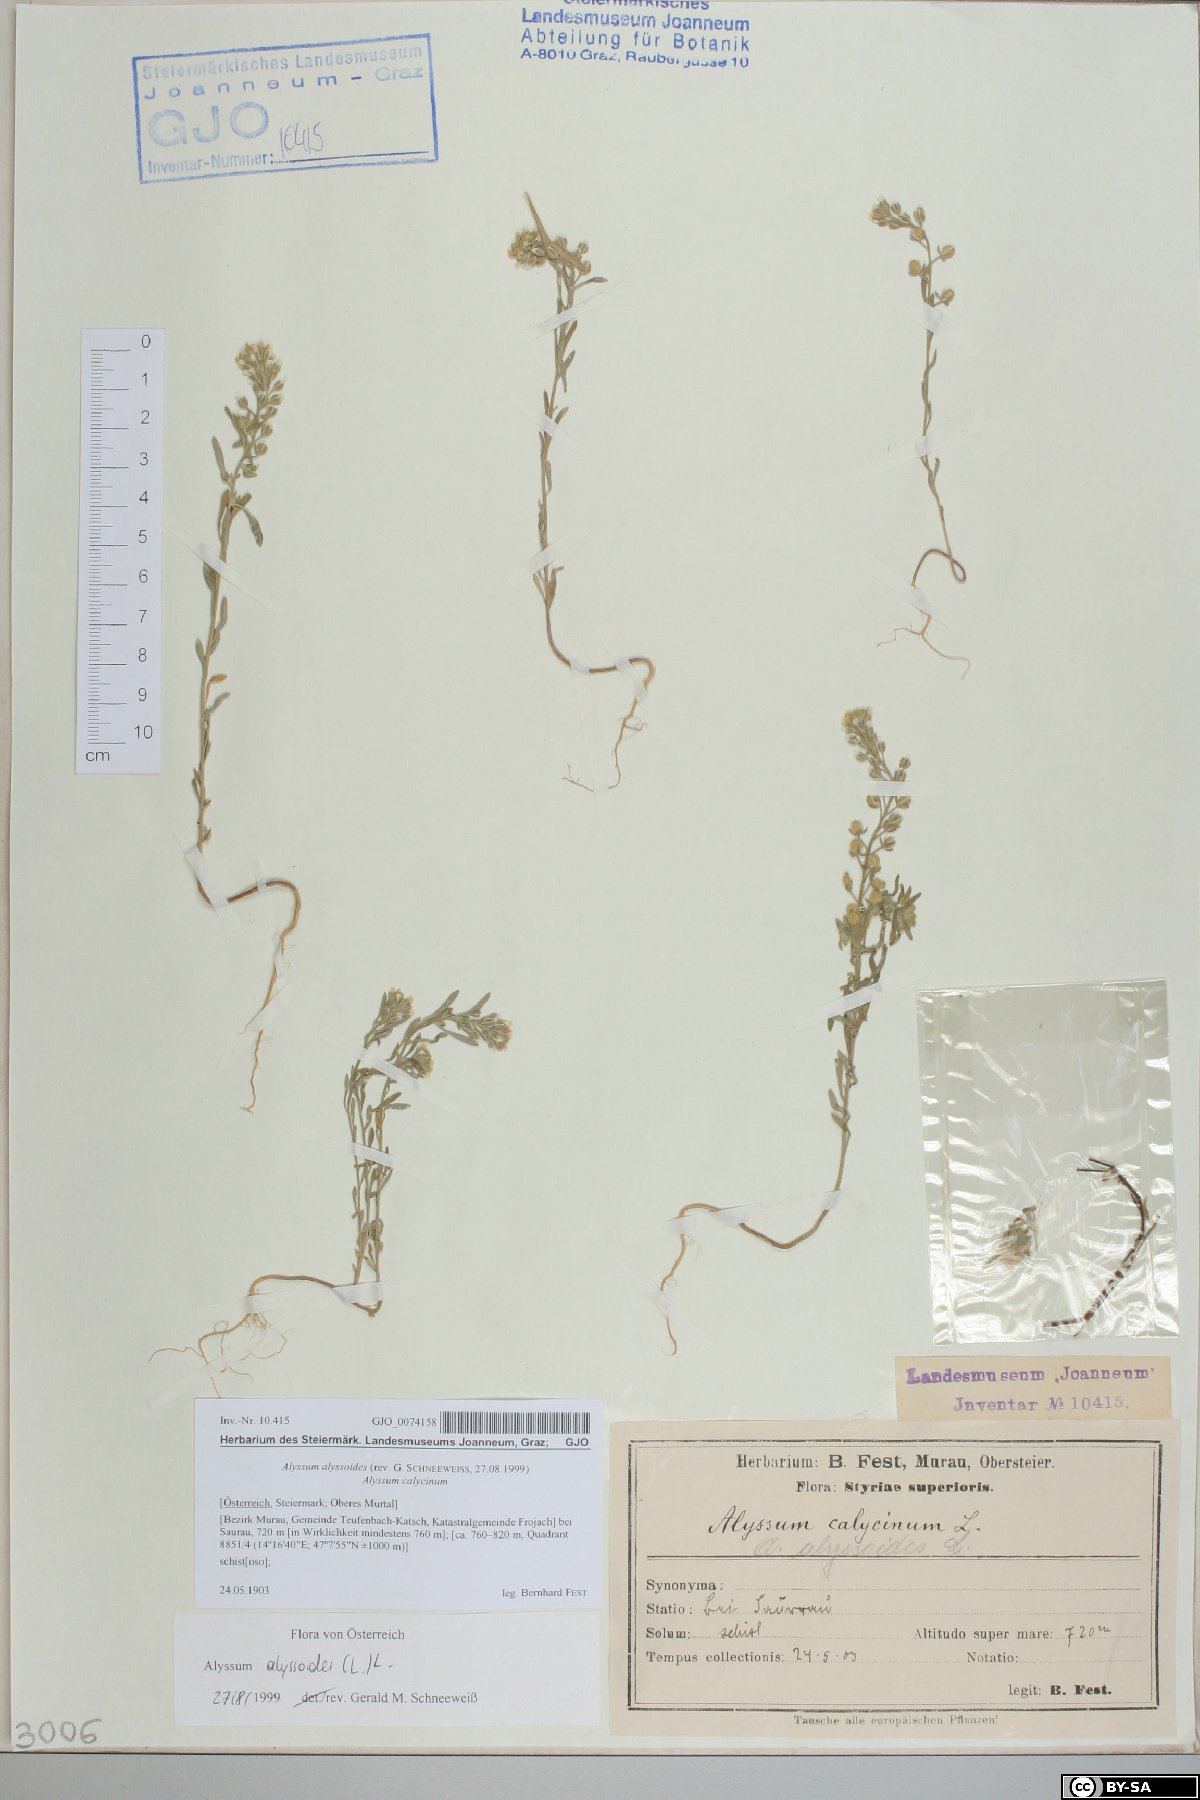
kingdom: Plantae
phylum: Tracheophyta
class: Magnoliopsida
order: Brassicales
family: Brassicaceae
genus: Alyssum
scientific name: Alyssum alyssoides
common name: Small alison
